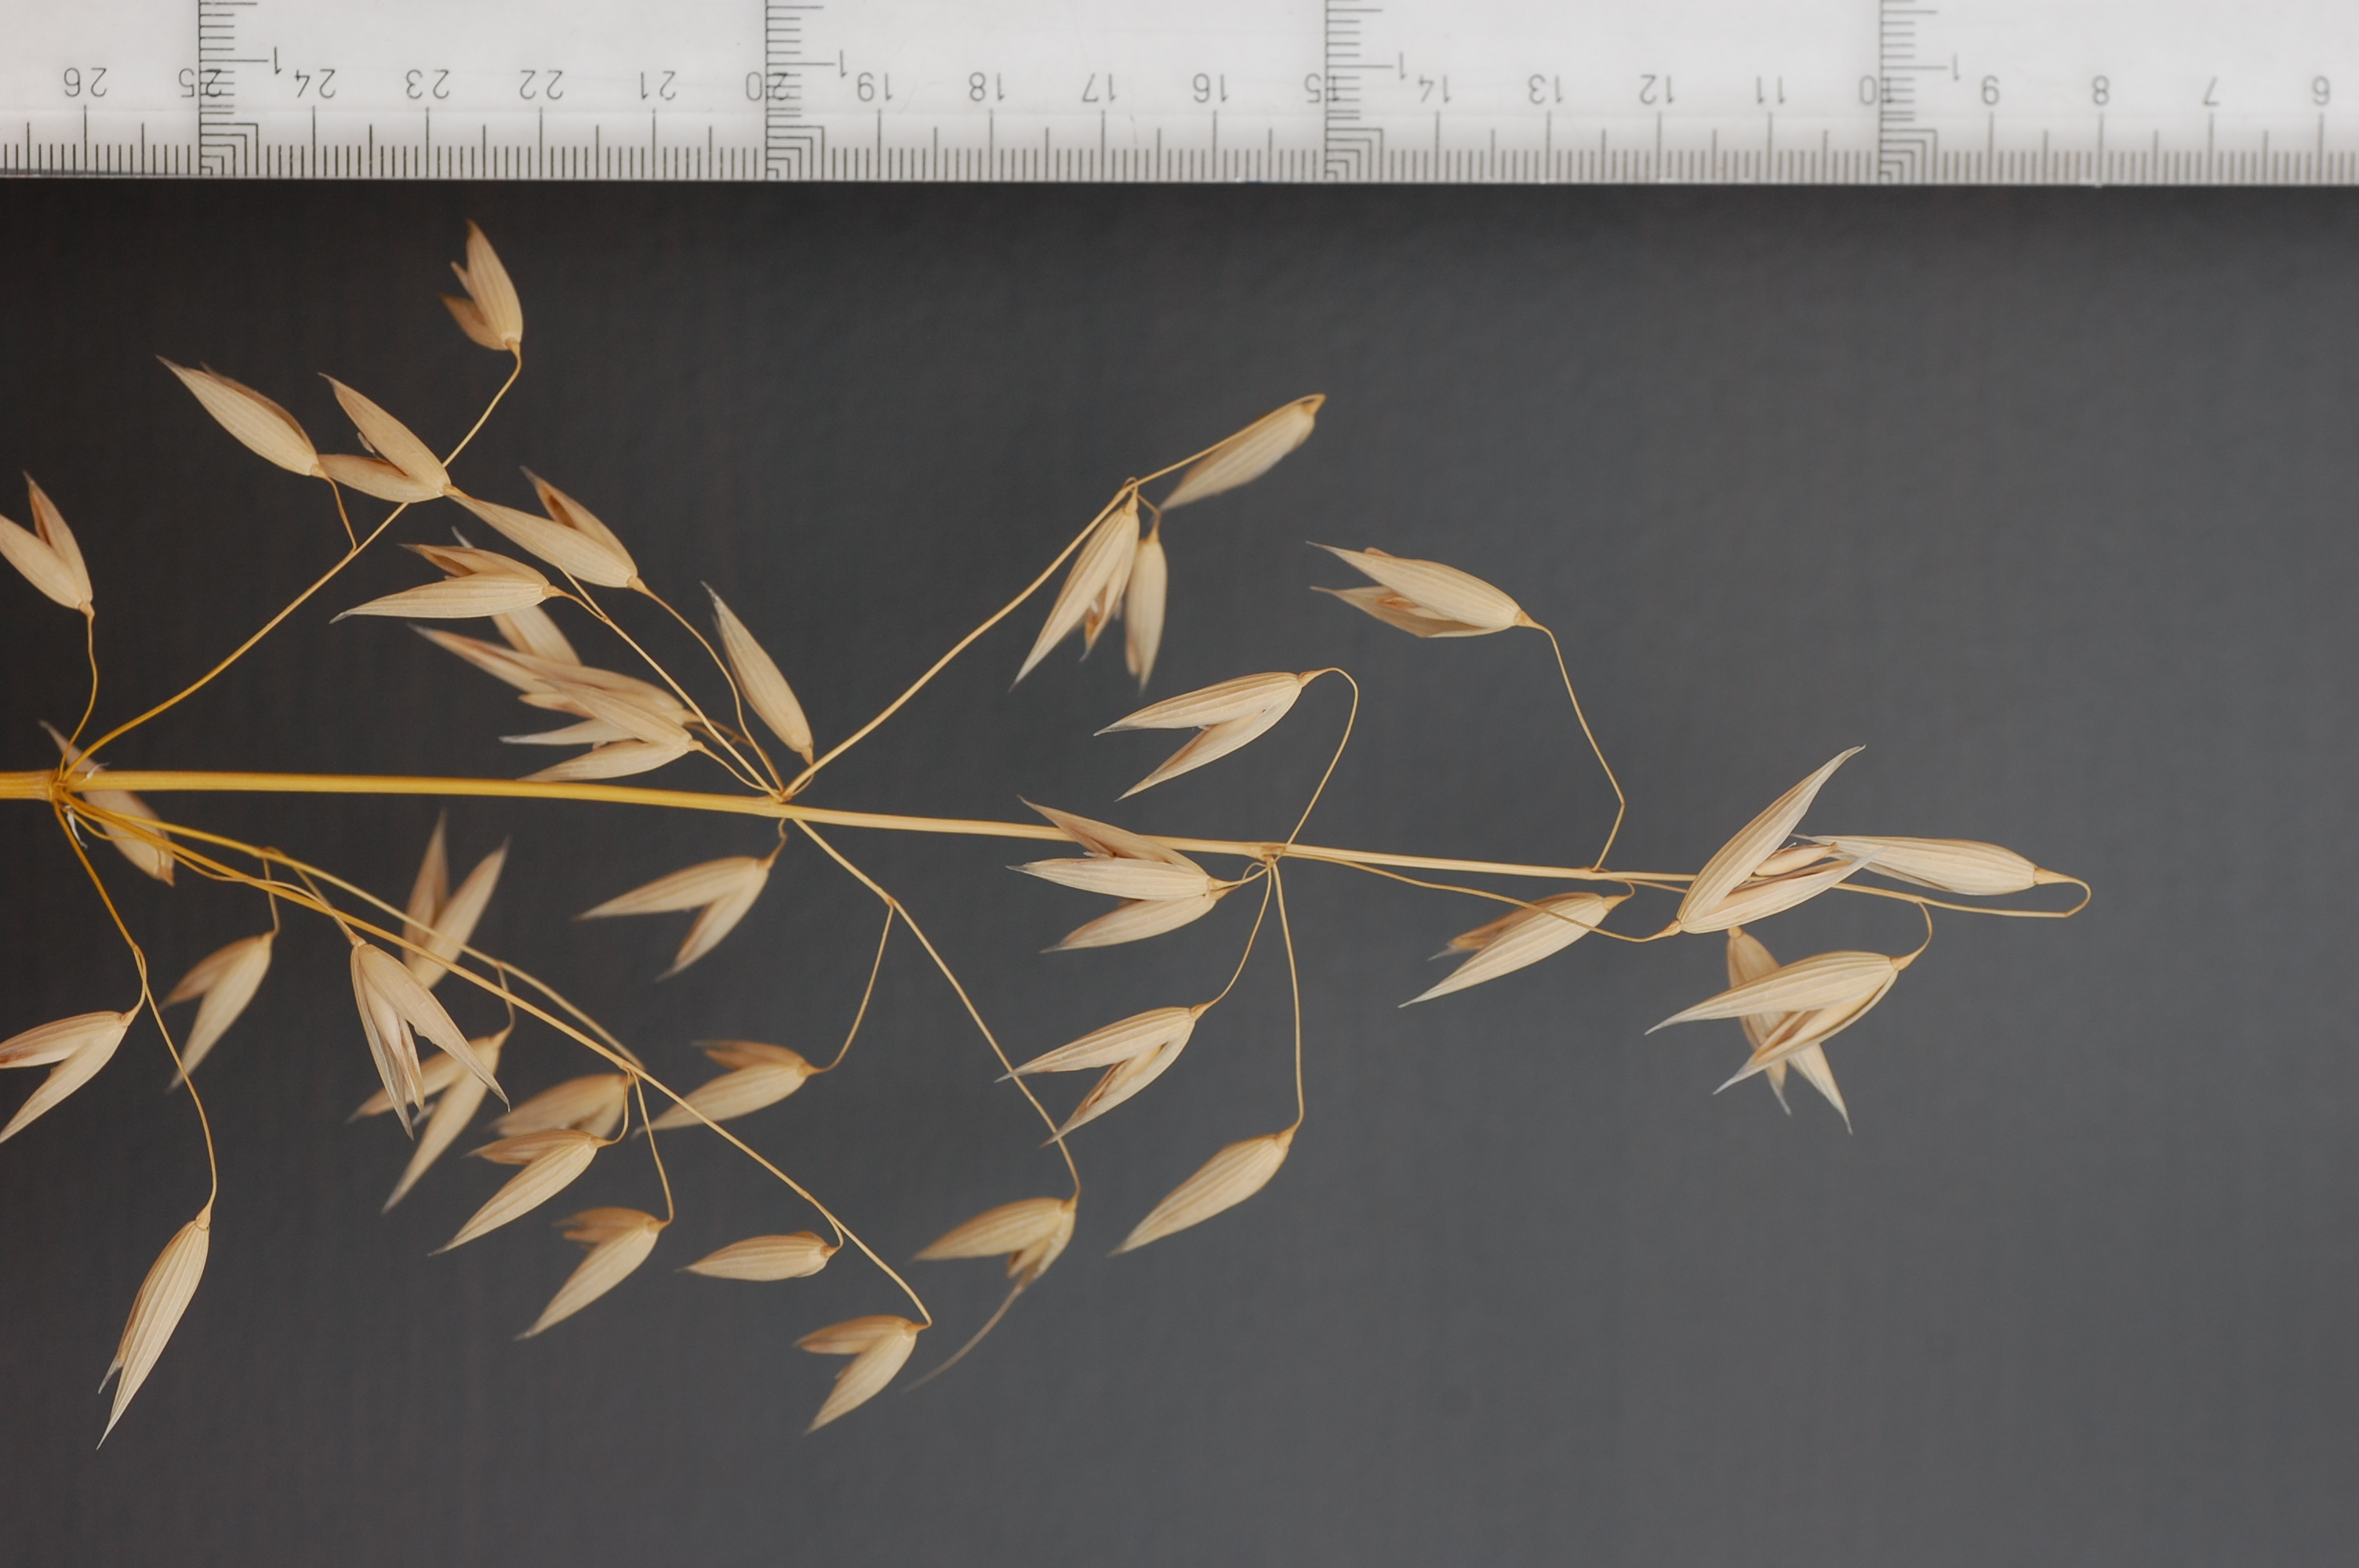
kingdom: Plantae
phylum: Tracheophyta
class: Liliopsida
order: Poales
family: Poaceae
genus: Avena
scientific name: Avena sativa
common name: Oat
